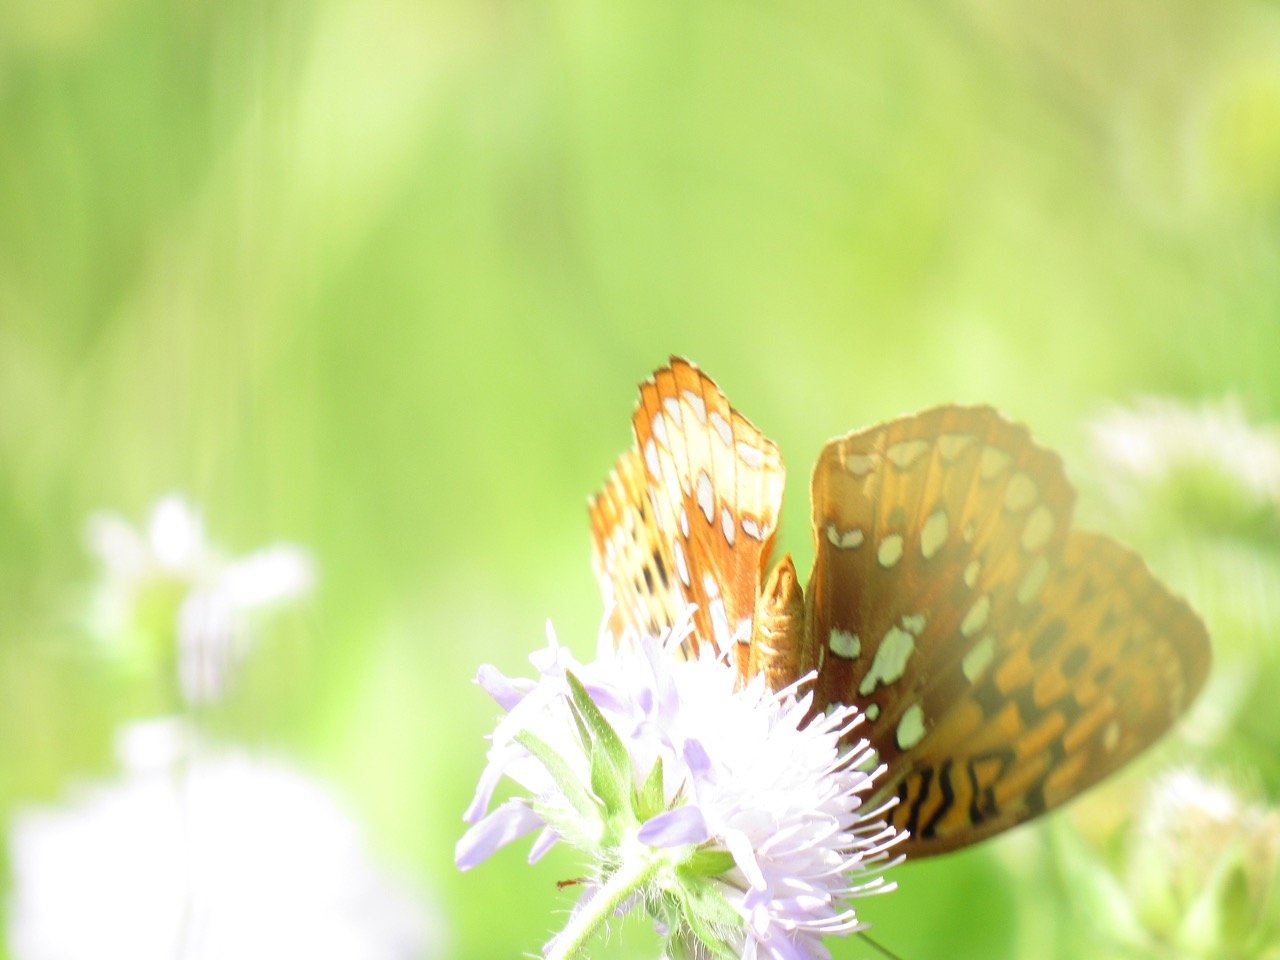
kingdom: Animalia
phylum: Arthropoda
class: Insecta
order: Lepidoptera
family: Nymphalidae
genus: Speyeria
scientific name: Speyeria cybele
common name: Great Spangled Fritillary
